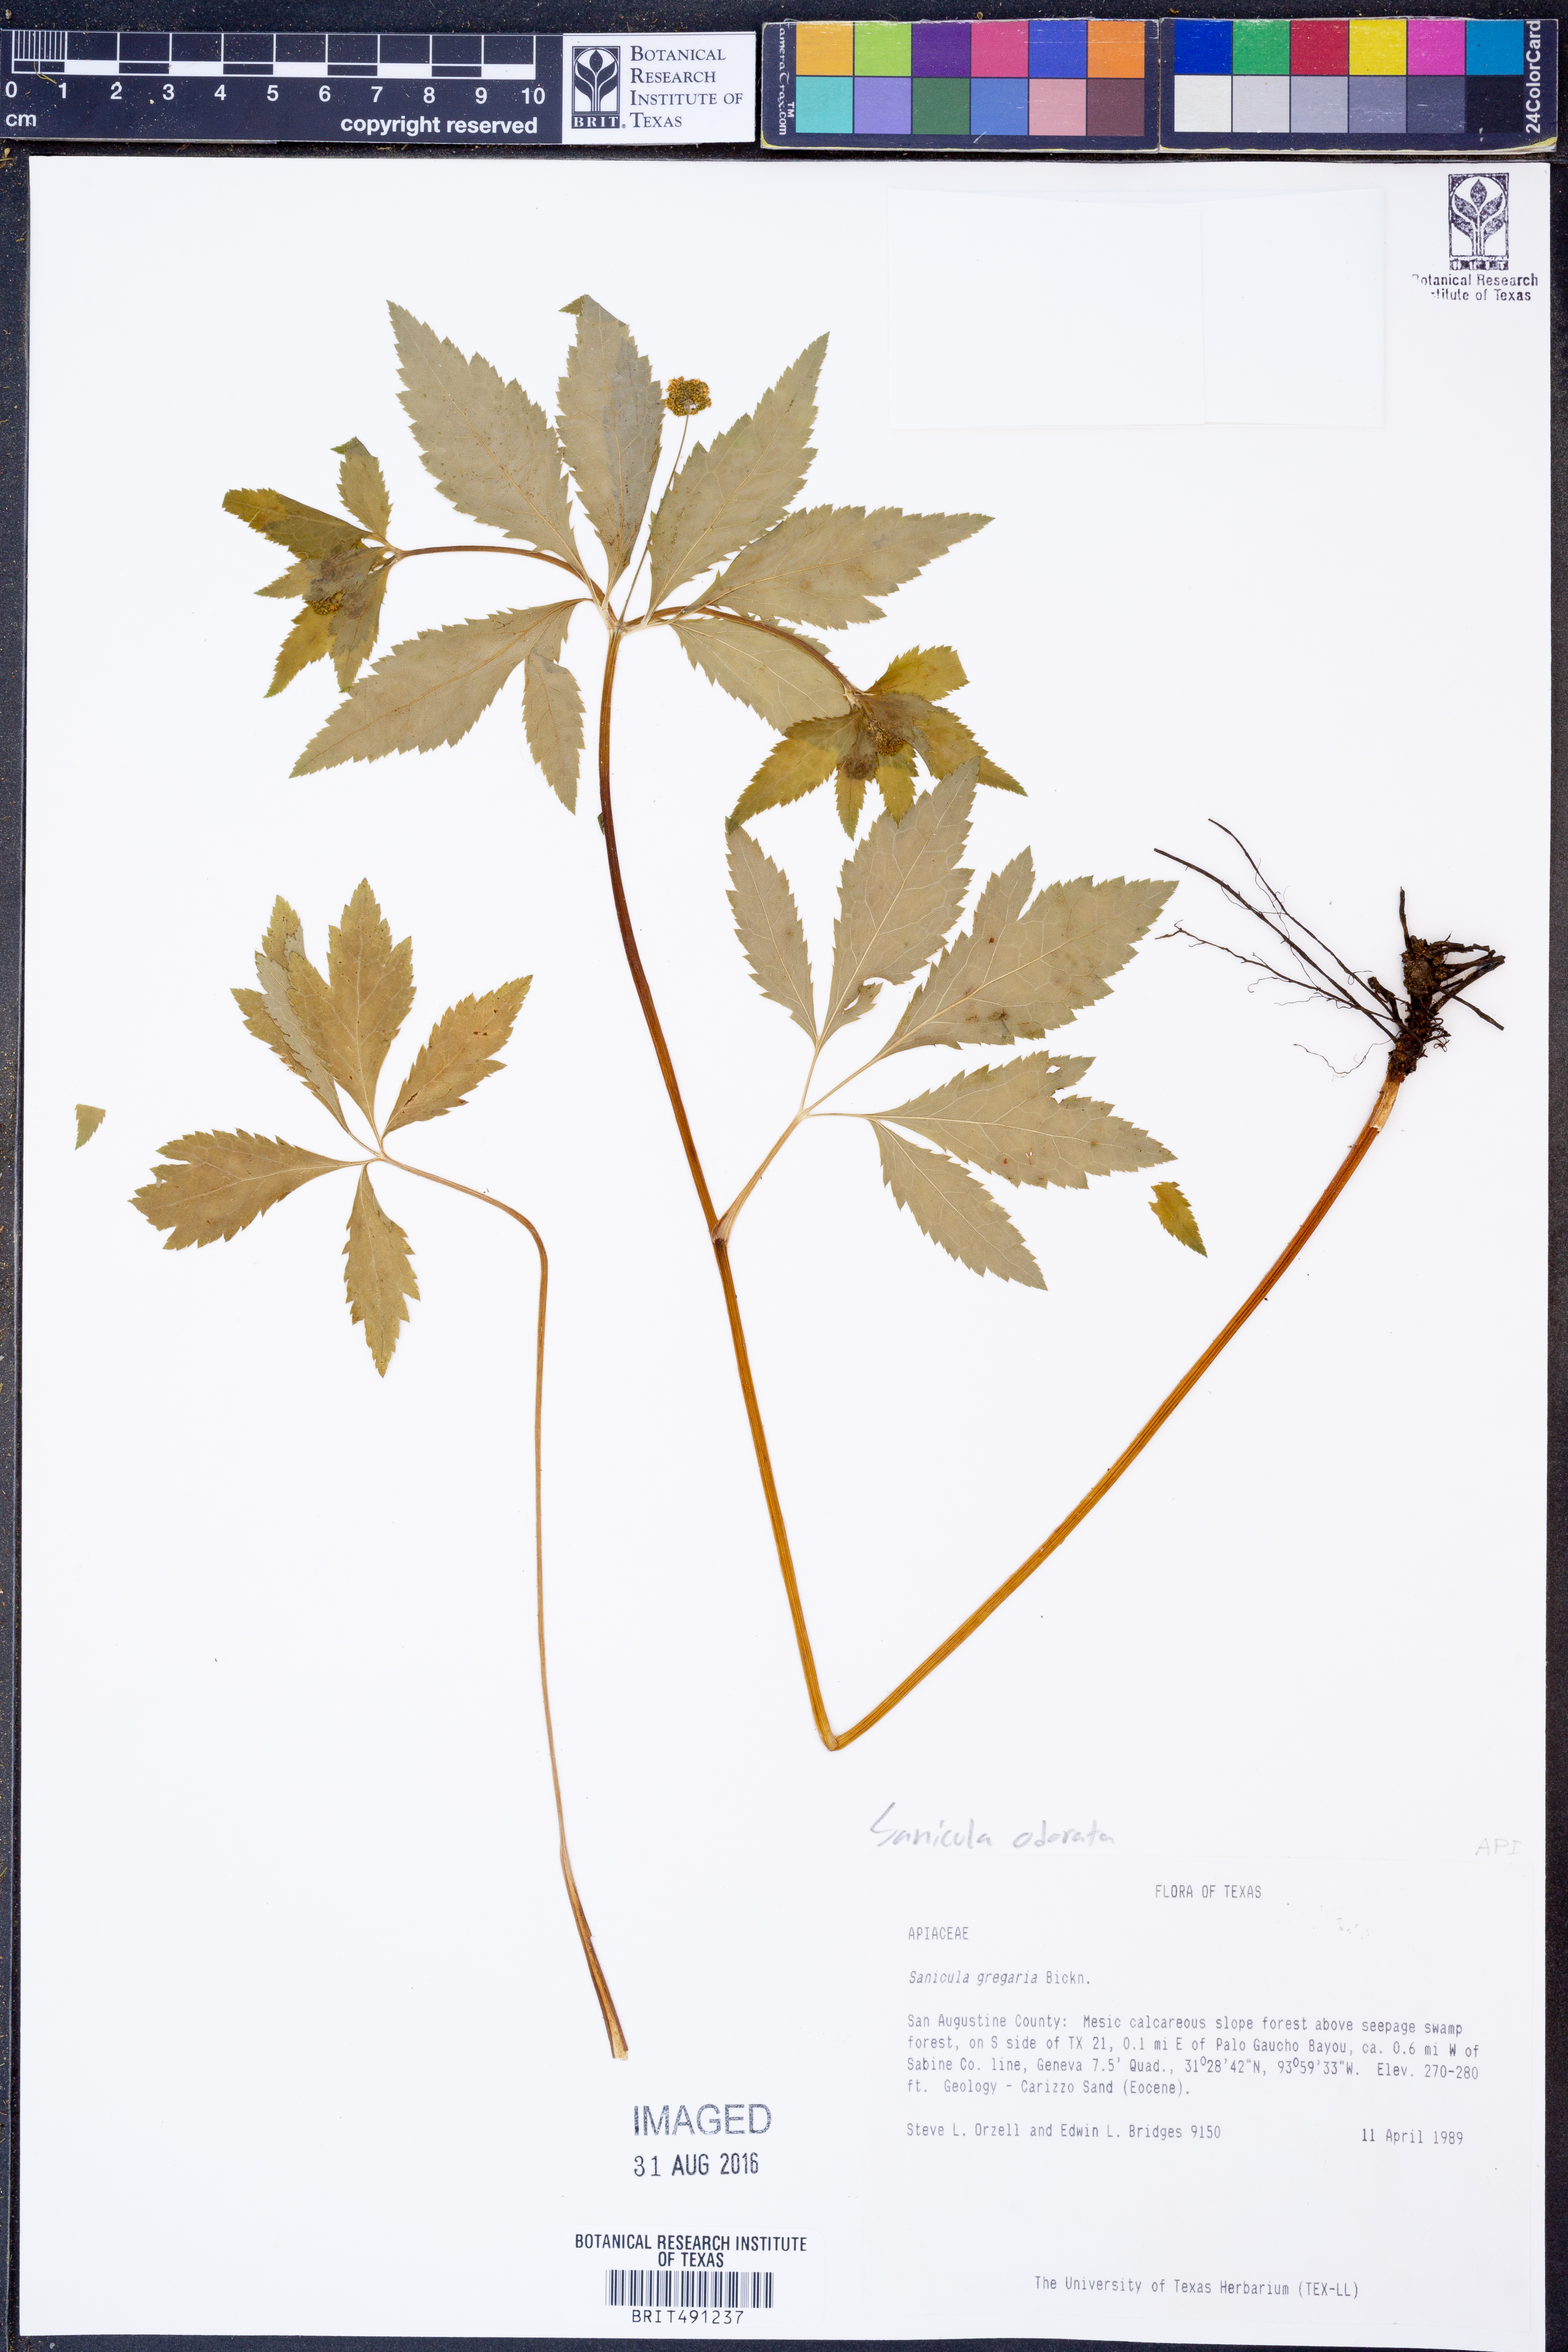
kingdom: Plantae
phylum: Tracheophyta
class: Magnoliopsida
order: Apiales
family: Apiaceae
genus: Sanicula
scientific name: Sanicula odorata
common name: Cluster sanicle
